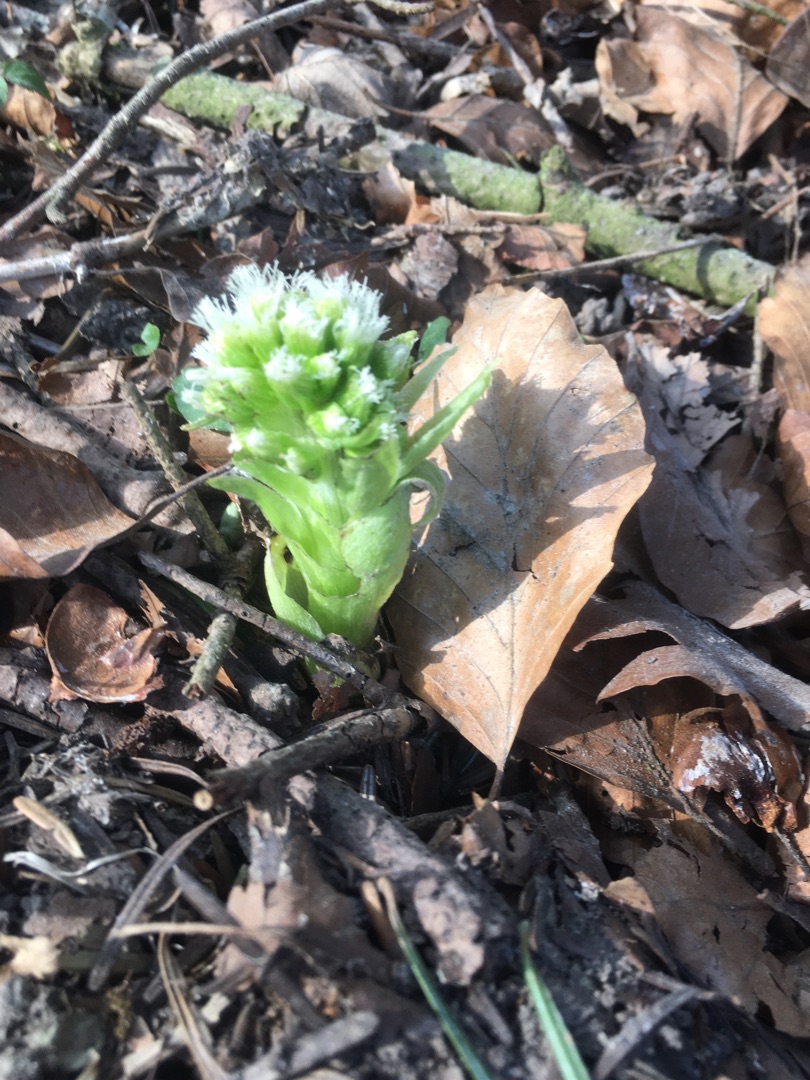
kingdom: Plantae
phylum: Tracheophyta
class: Magnoliopsida
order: Asterales
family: Asteraceae
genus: Petasites
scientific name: Petasites albus
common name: Hvid hestehov
